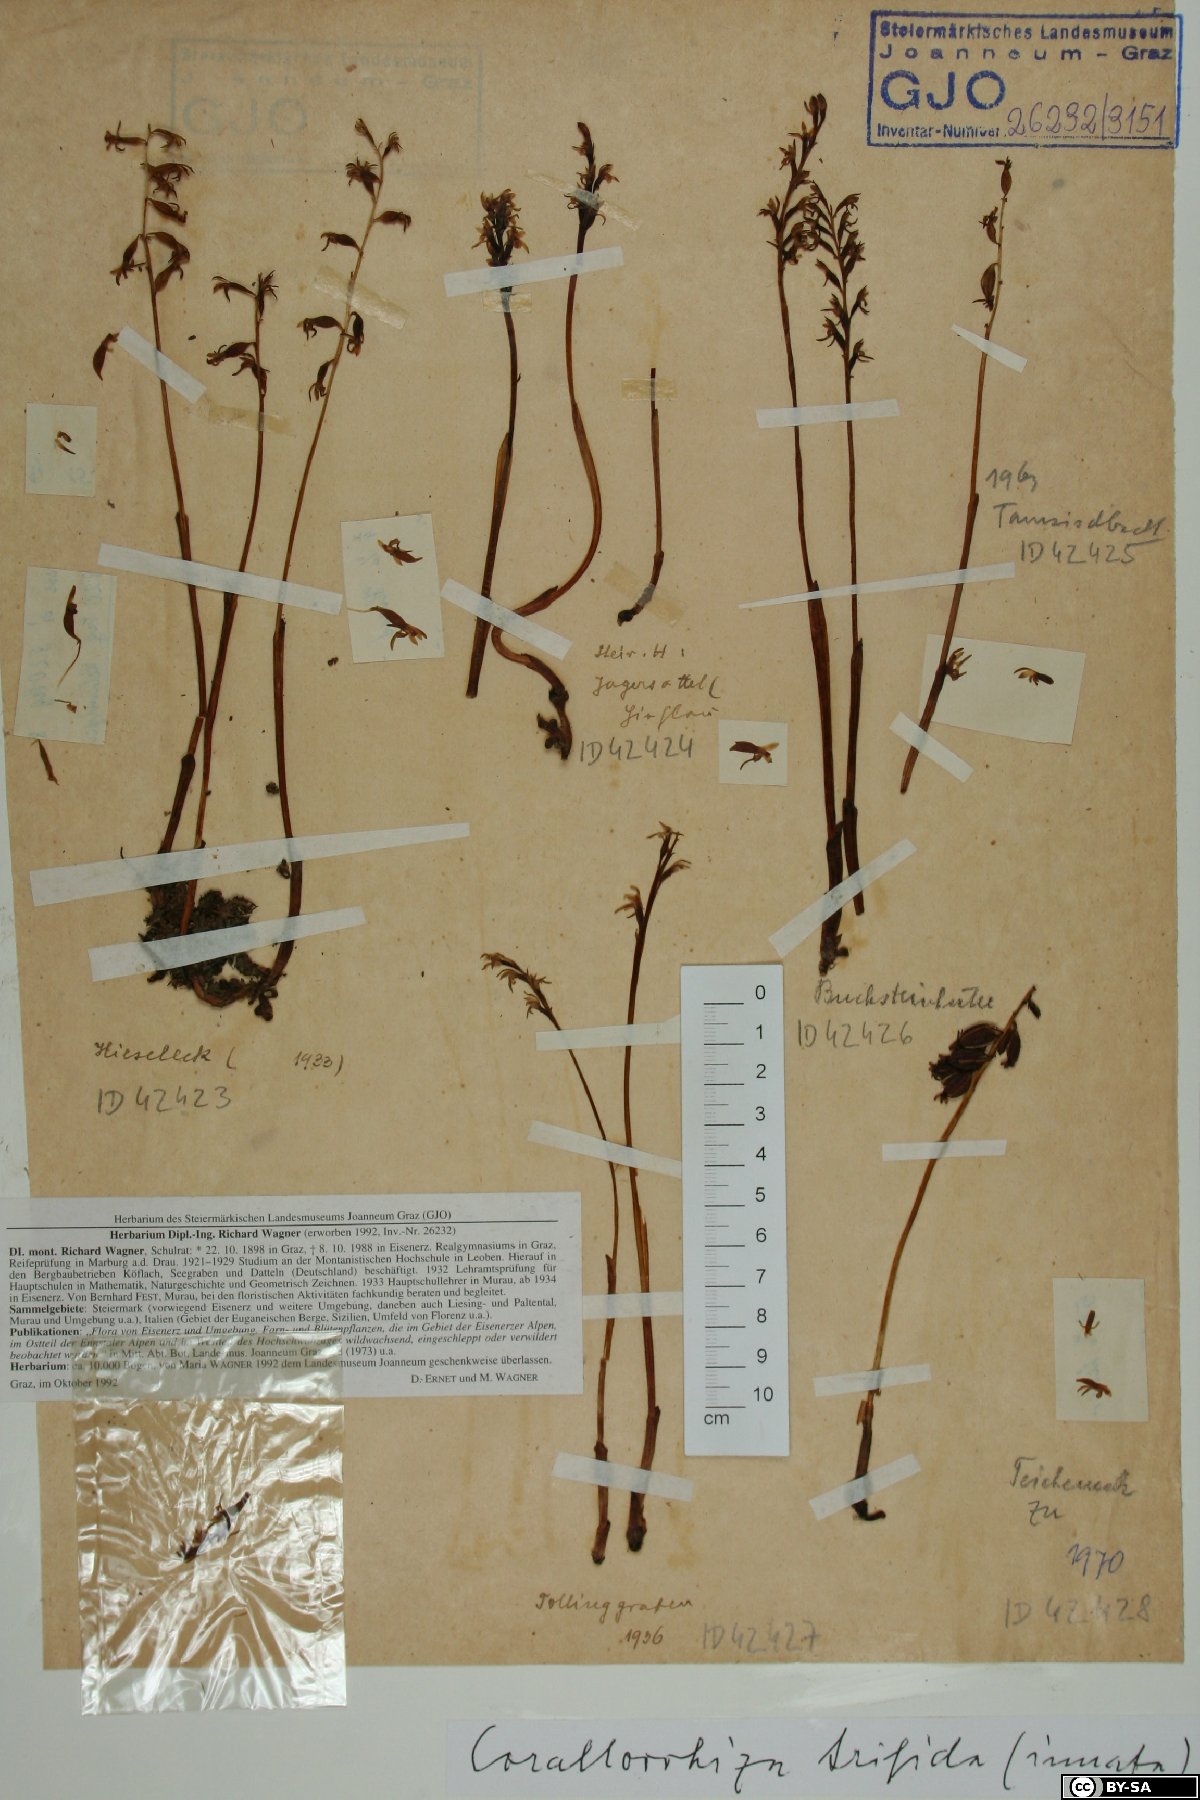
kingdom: Plantae
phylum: Tracheophyta
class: Liliopsida
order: Asparagales
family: Orchidaceae
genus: Corallorhiza
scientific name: Corallorhiza trifida
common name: Yellow coralroot
